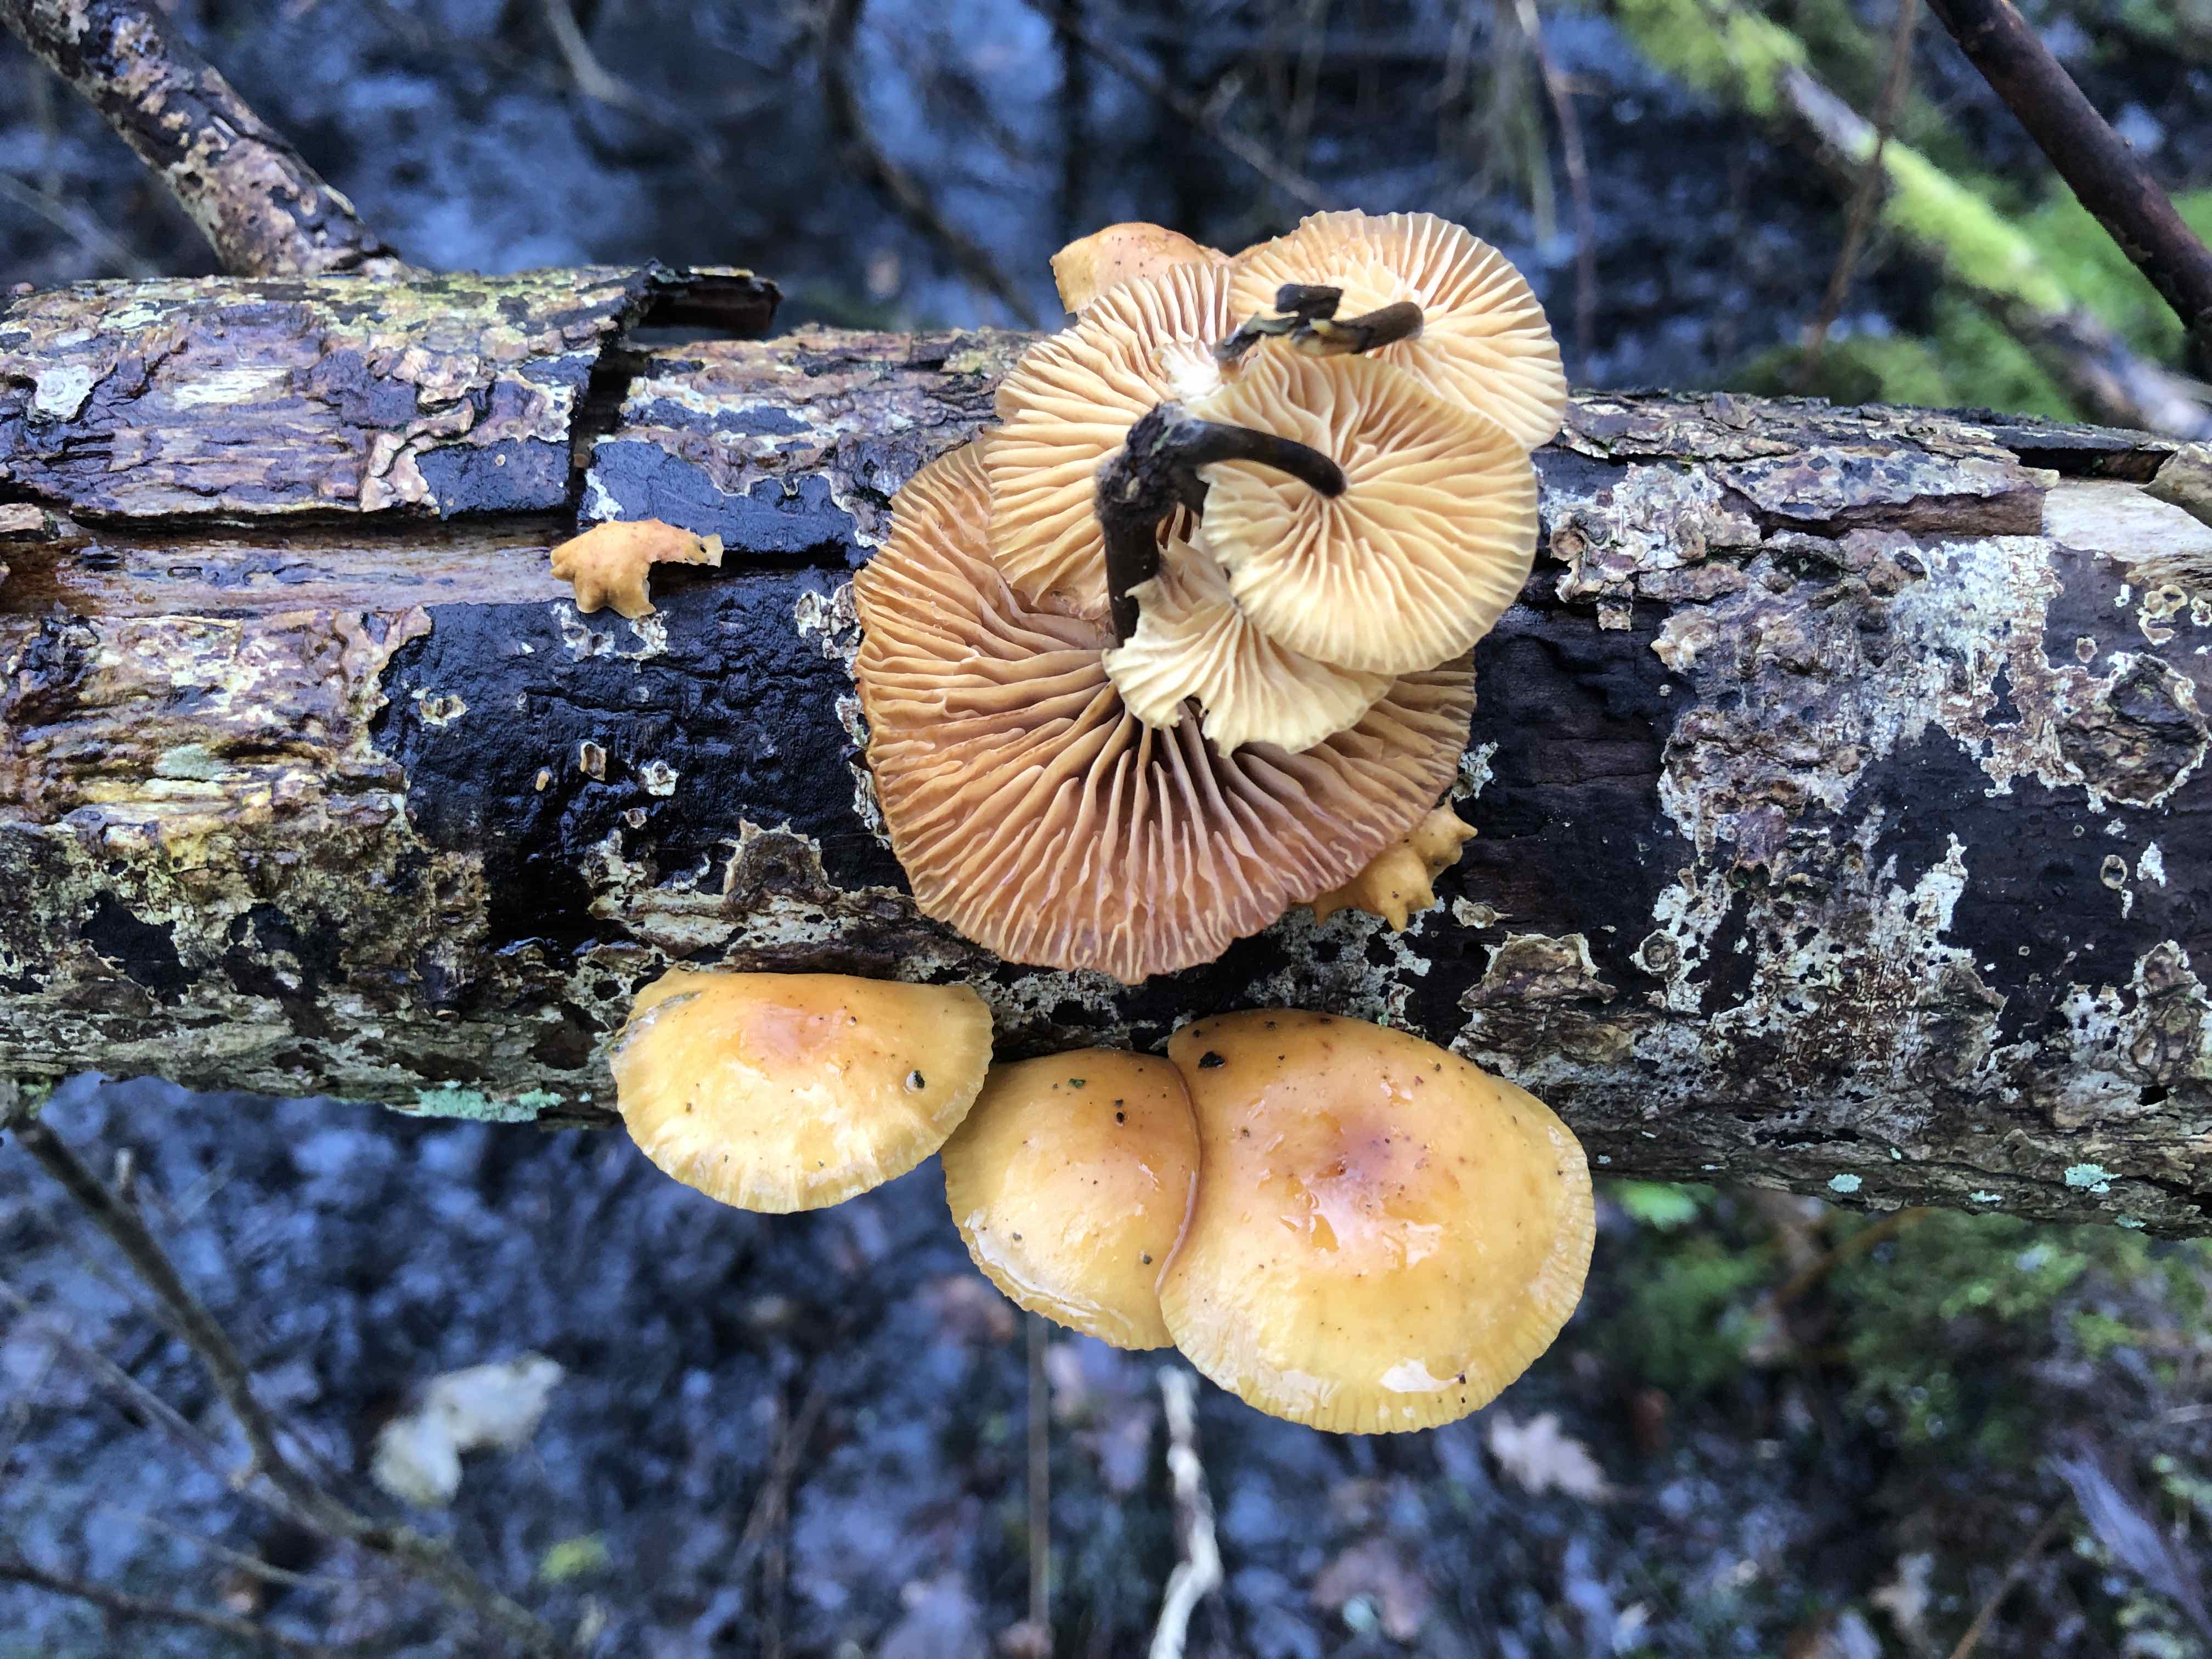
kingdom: Fungi
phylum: Basidiomycota
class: Agaricomycetes
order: Agaricales
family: Physalacriaceae
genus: Flammulina
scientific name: Flammulina
